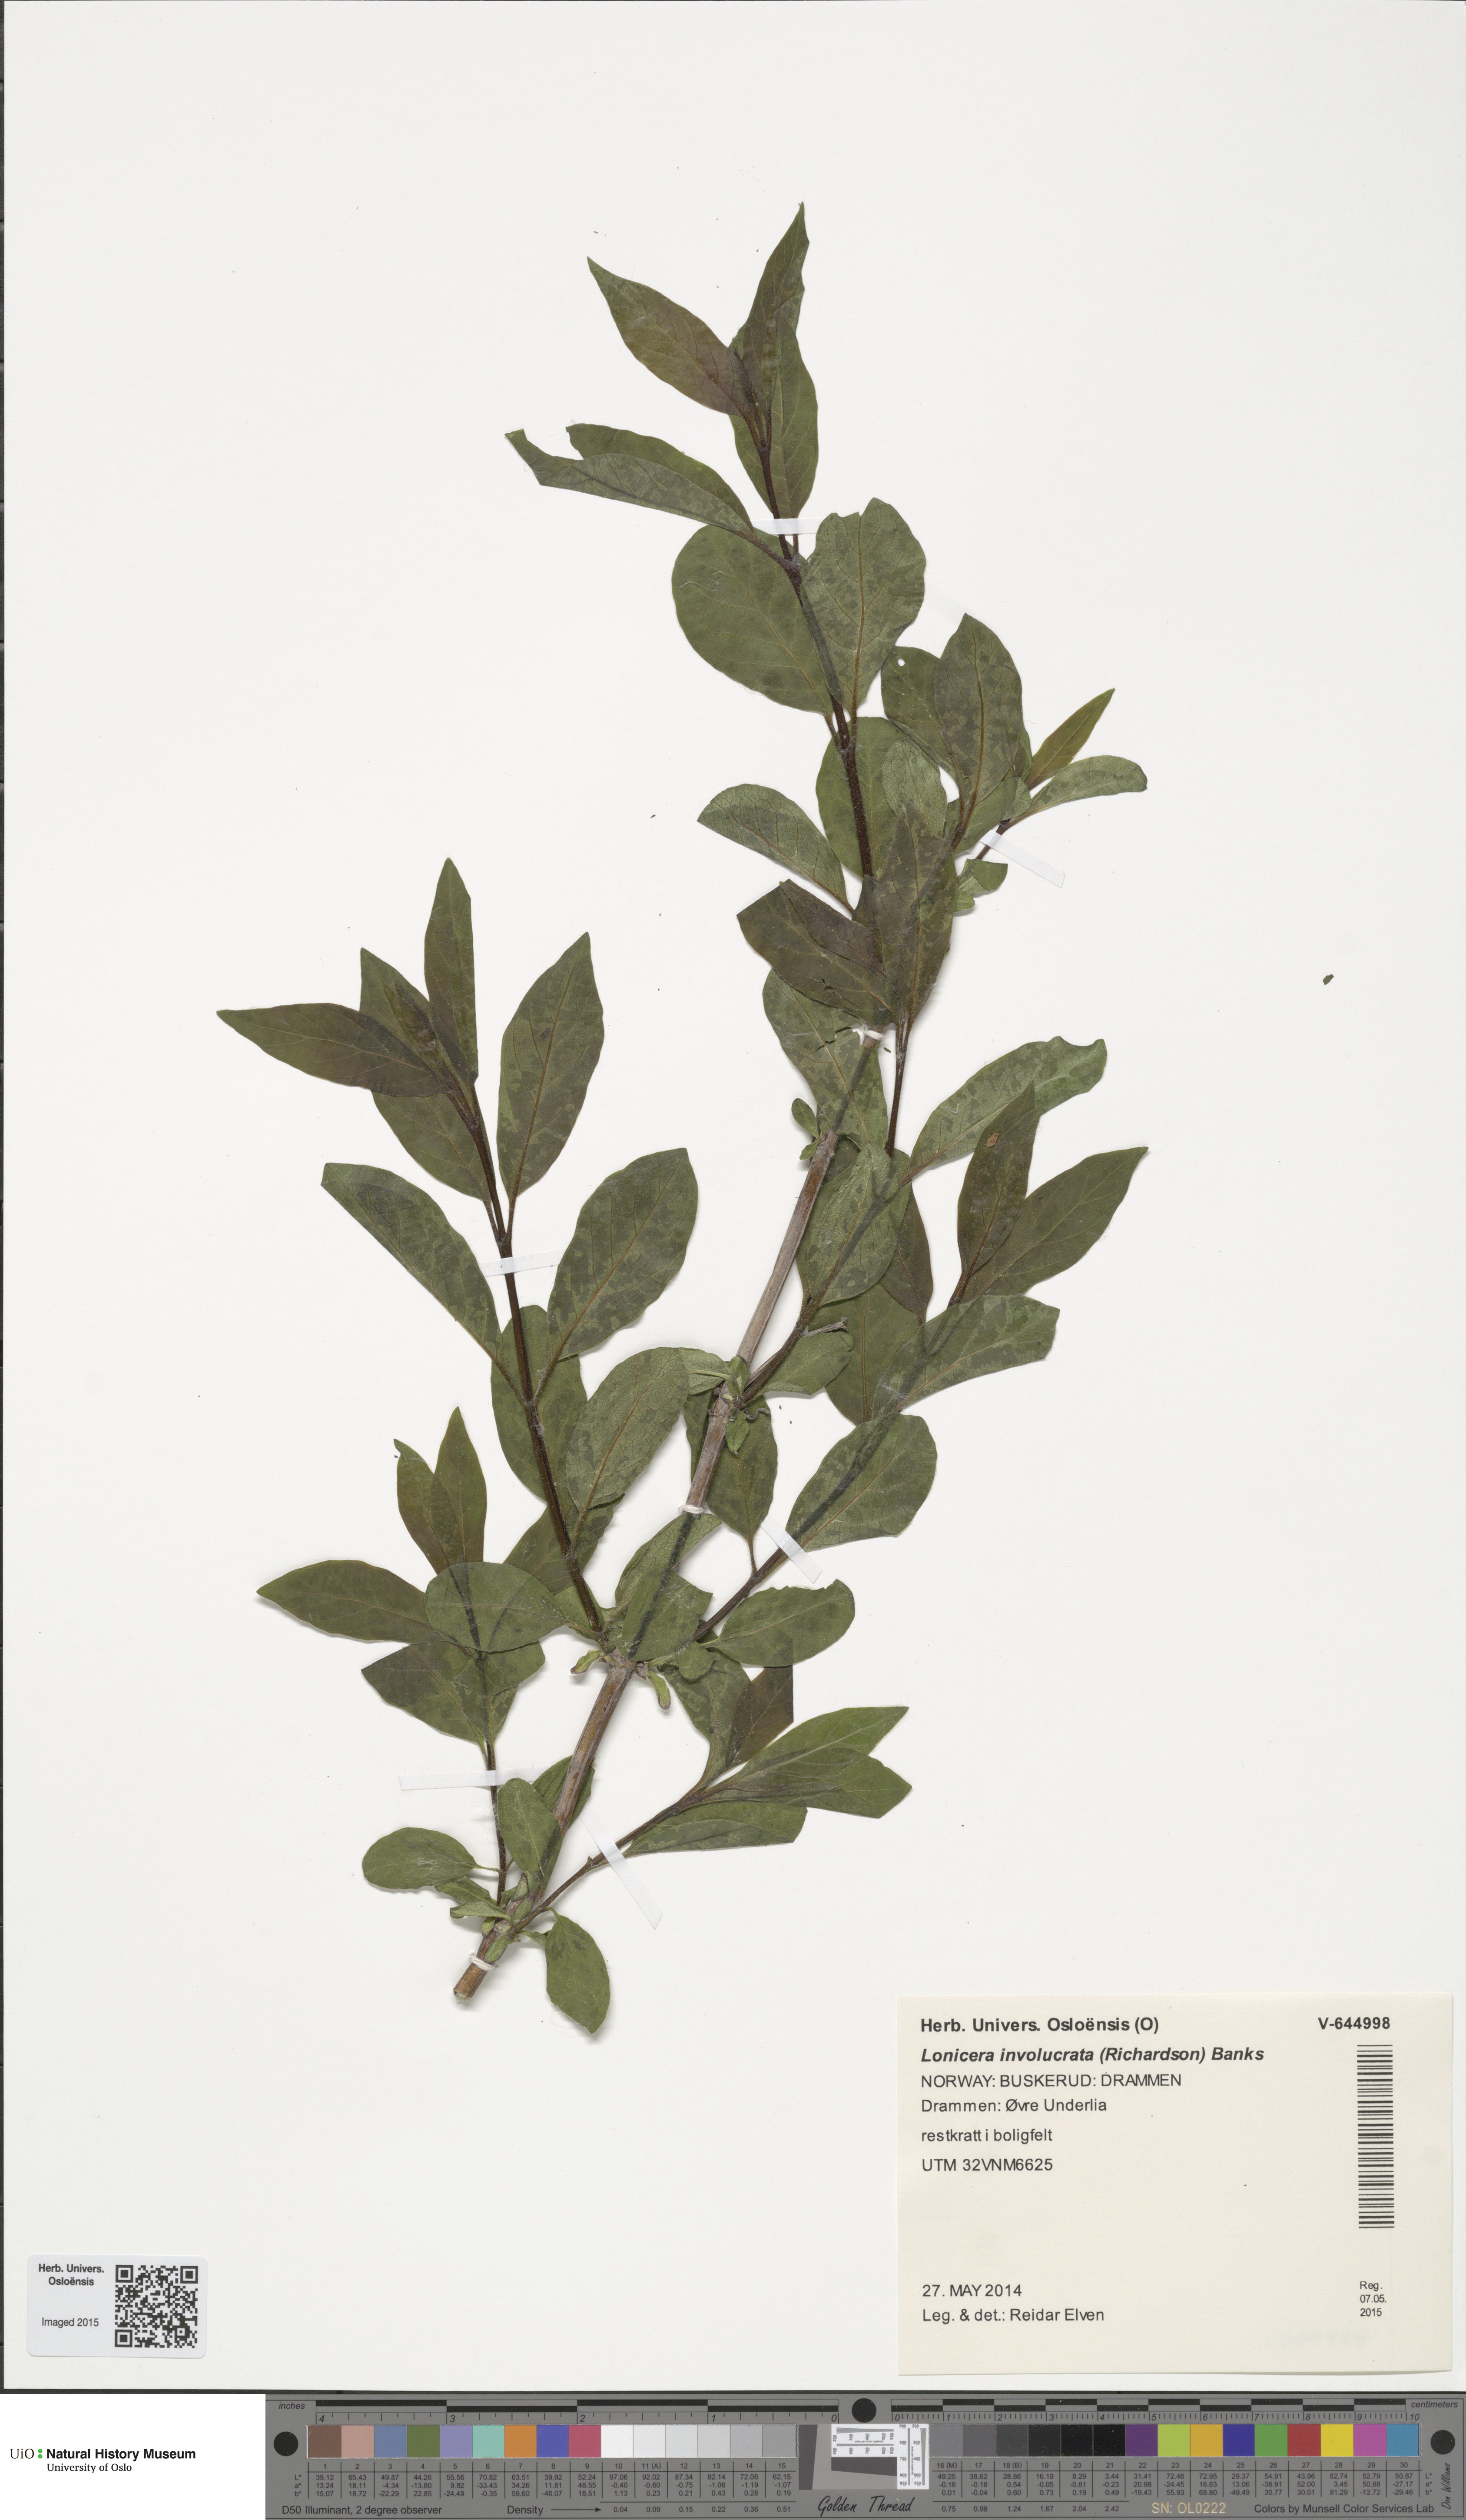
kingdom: Plantae
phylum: Tracheophyta
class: Magnoliopsida
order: Dipsacales
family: Caprifoliaceae
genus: Lonicera
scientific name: Lonicera involucrata
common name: Californian honeysuckle
